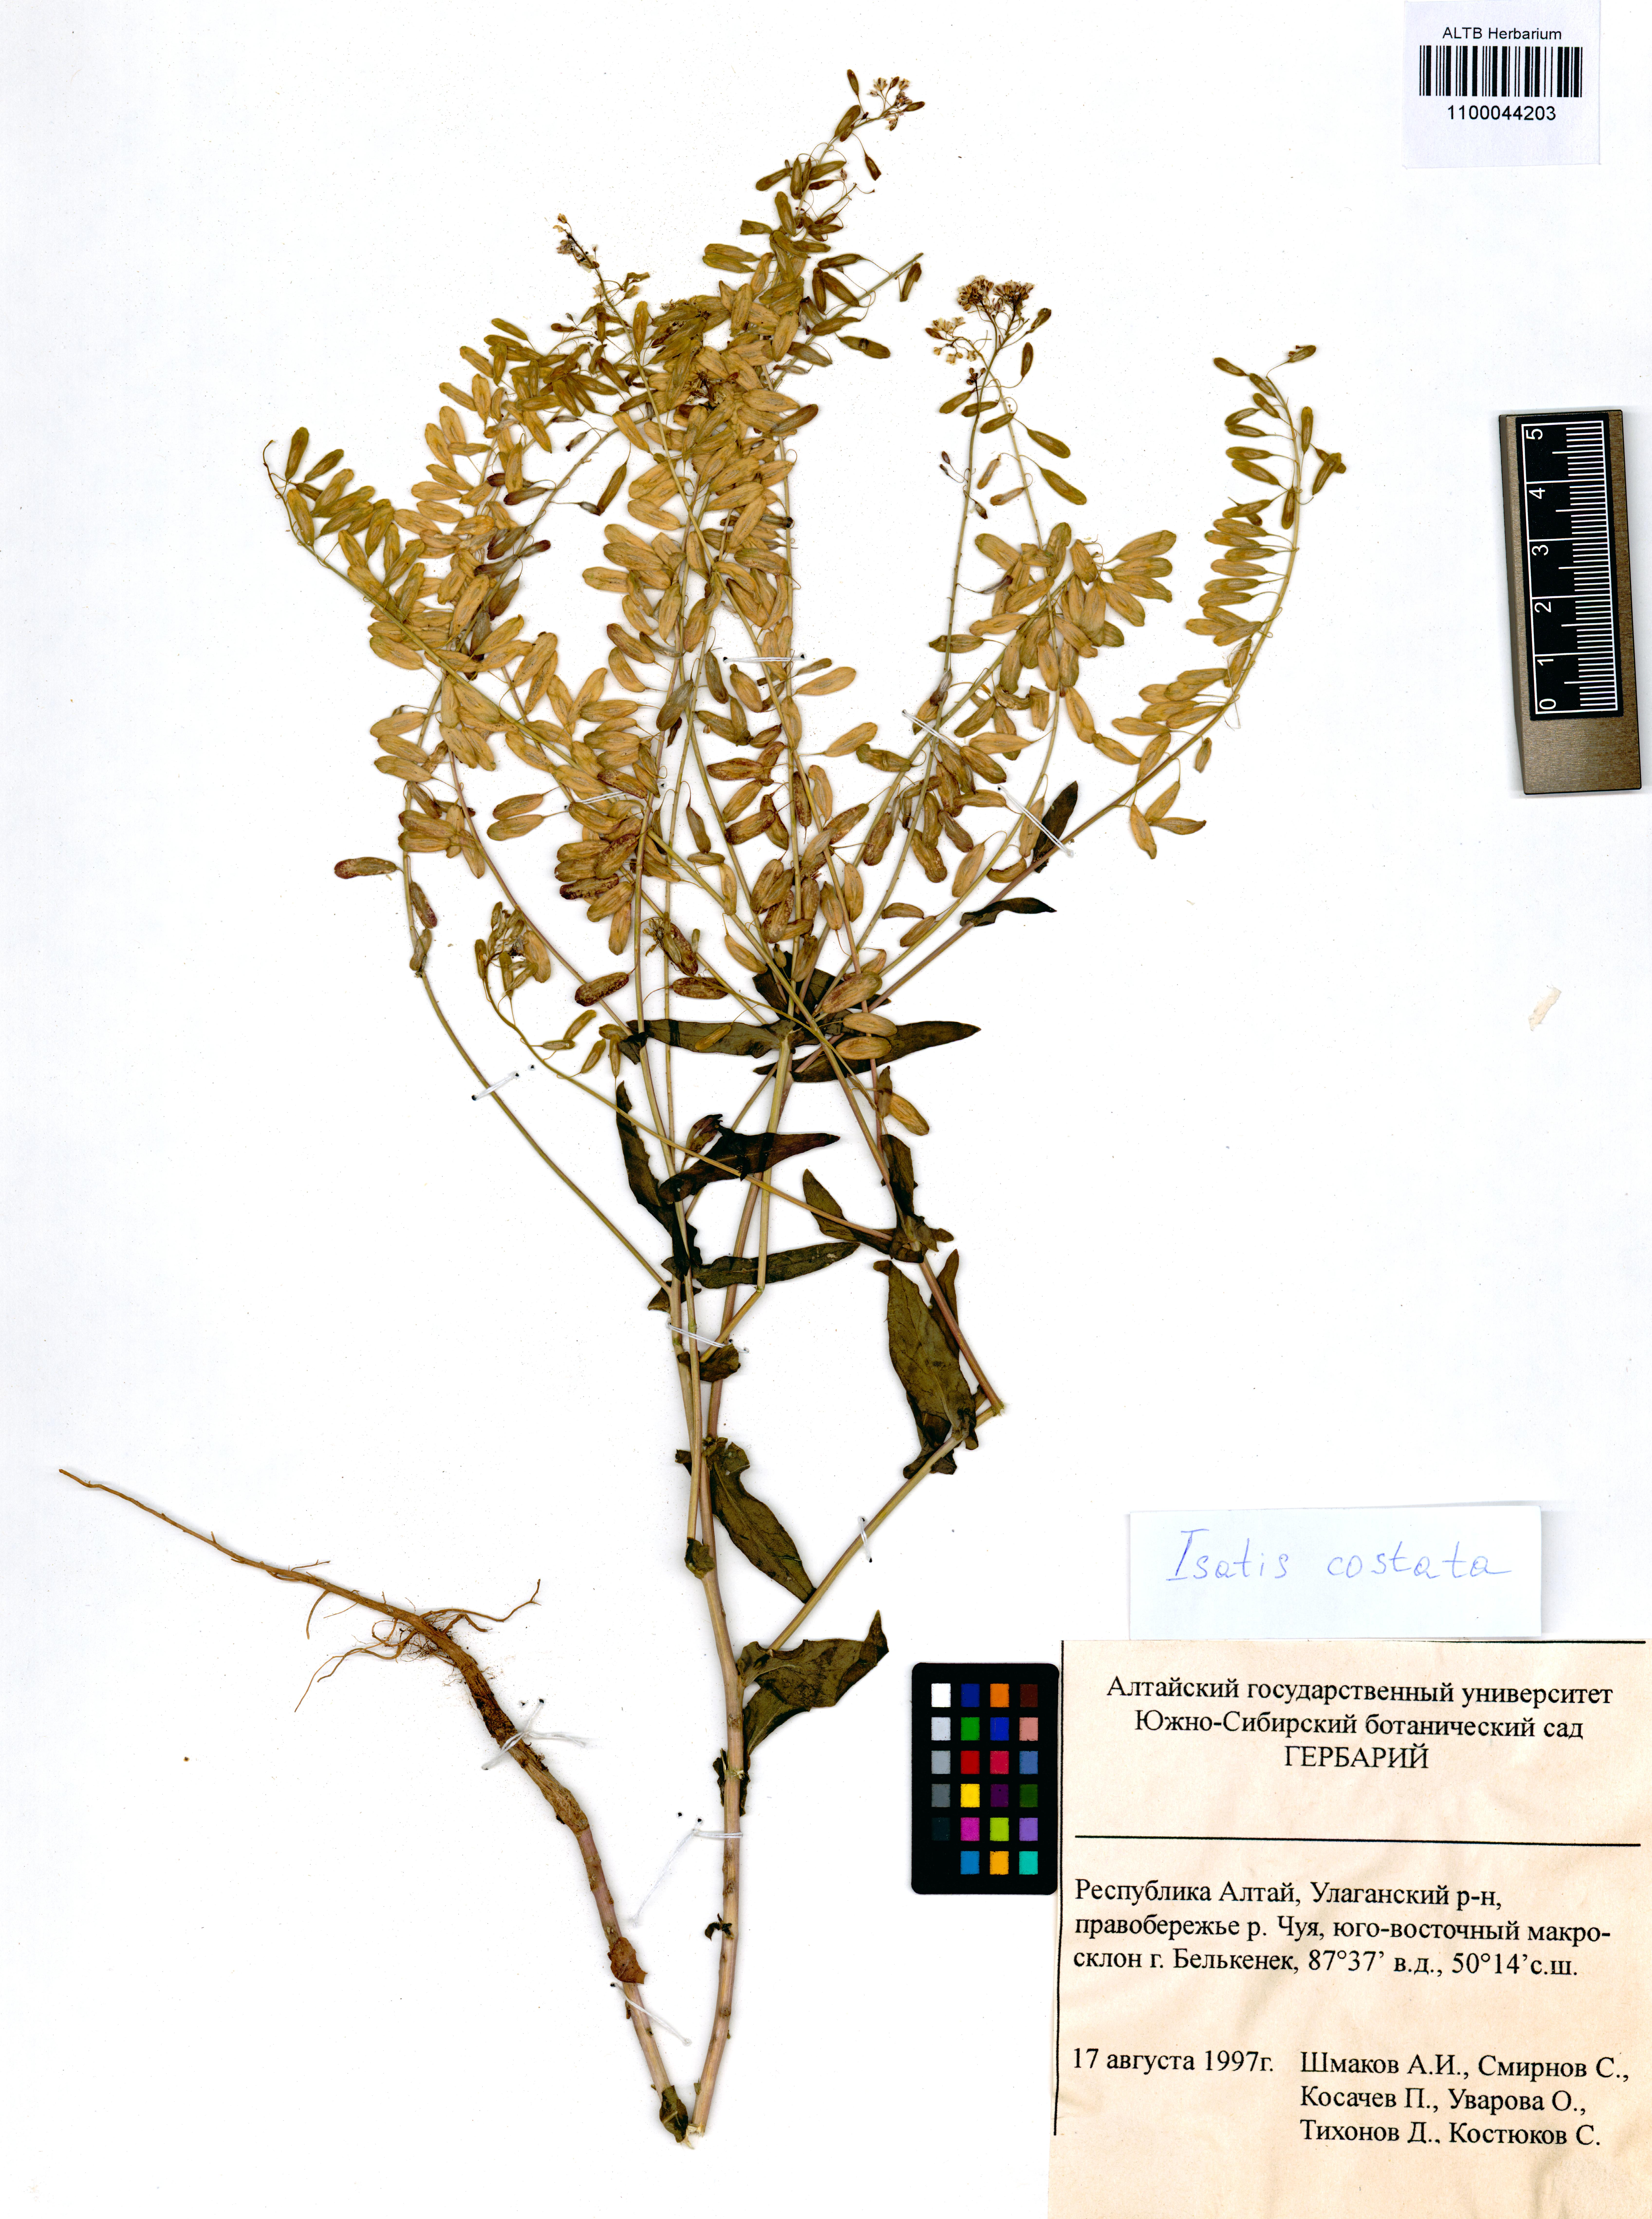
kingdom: Plantae
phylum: Tracheophyta
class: Magnoliopsida
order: Brassicales
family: Brassicaceae
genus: Isatis
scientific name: Isatis costata
